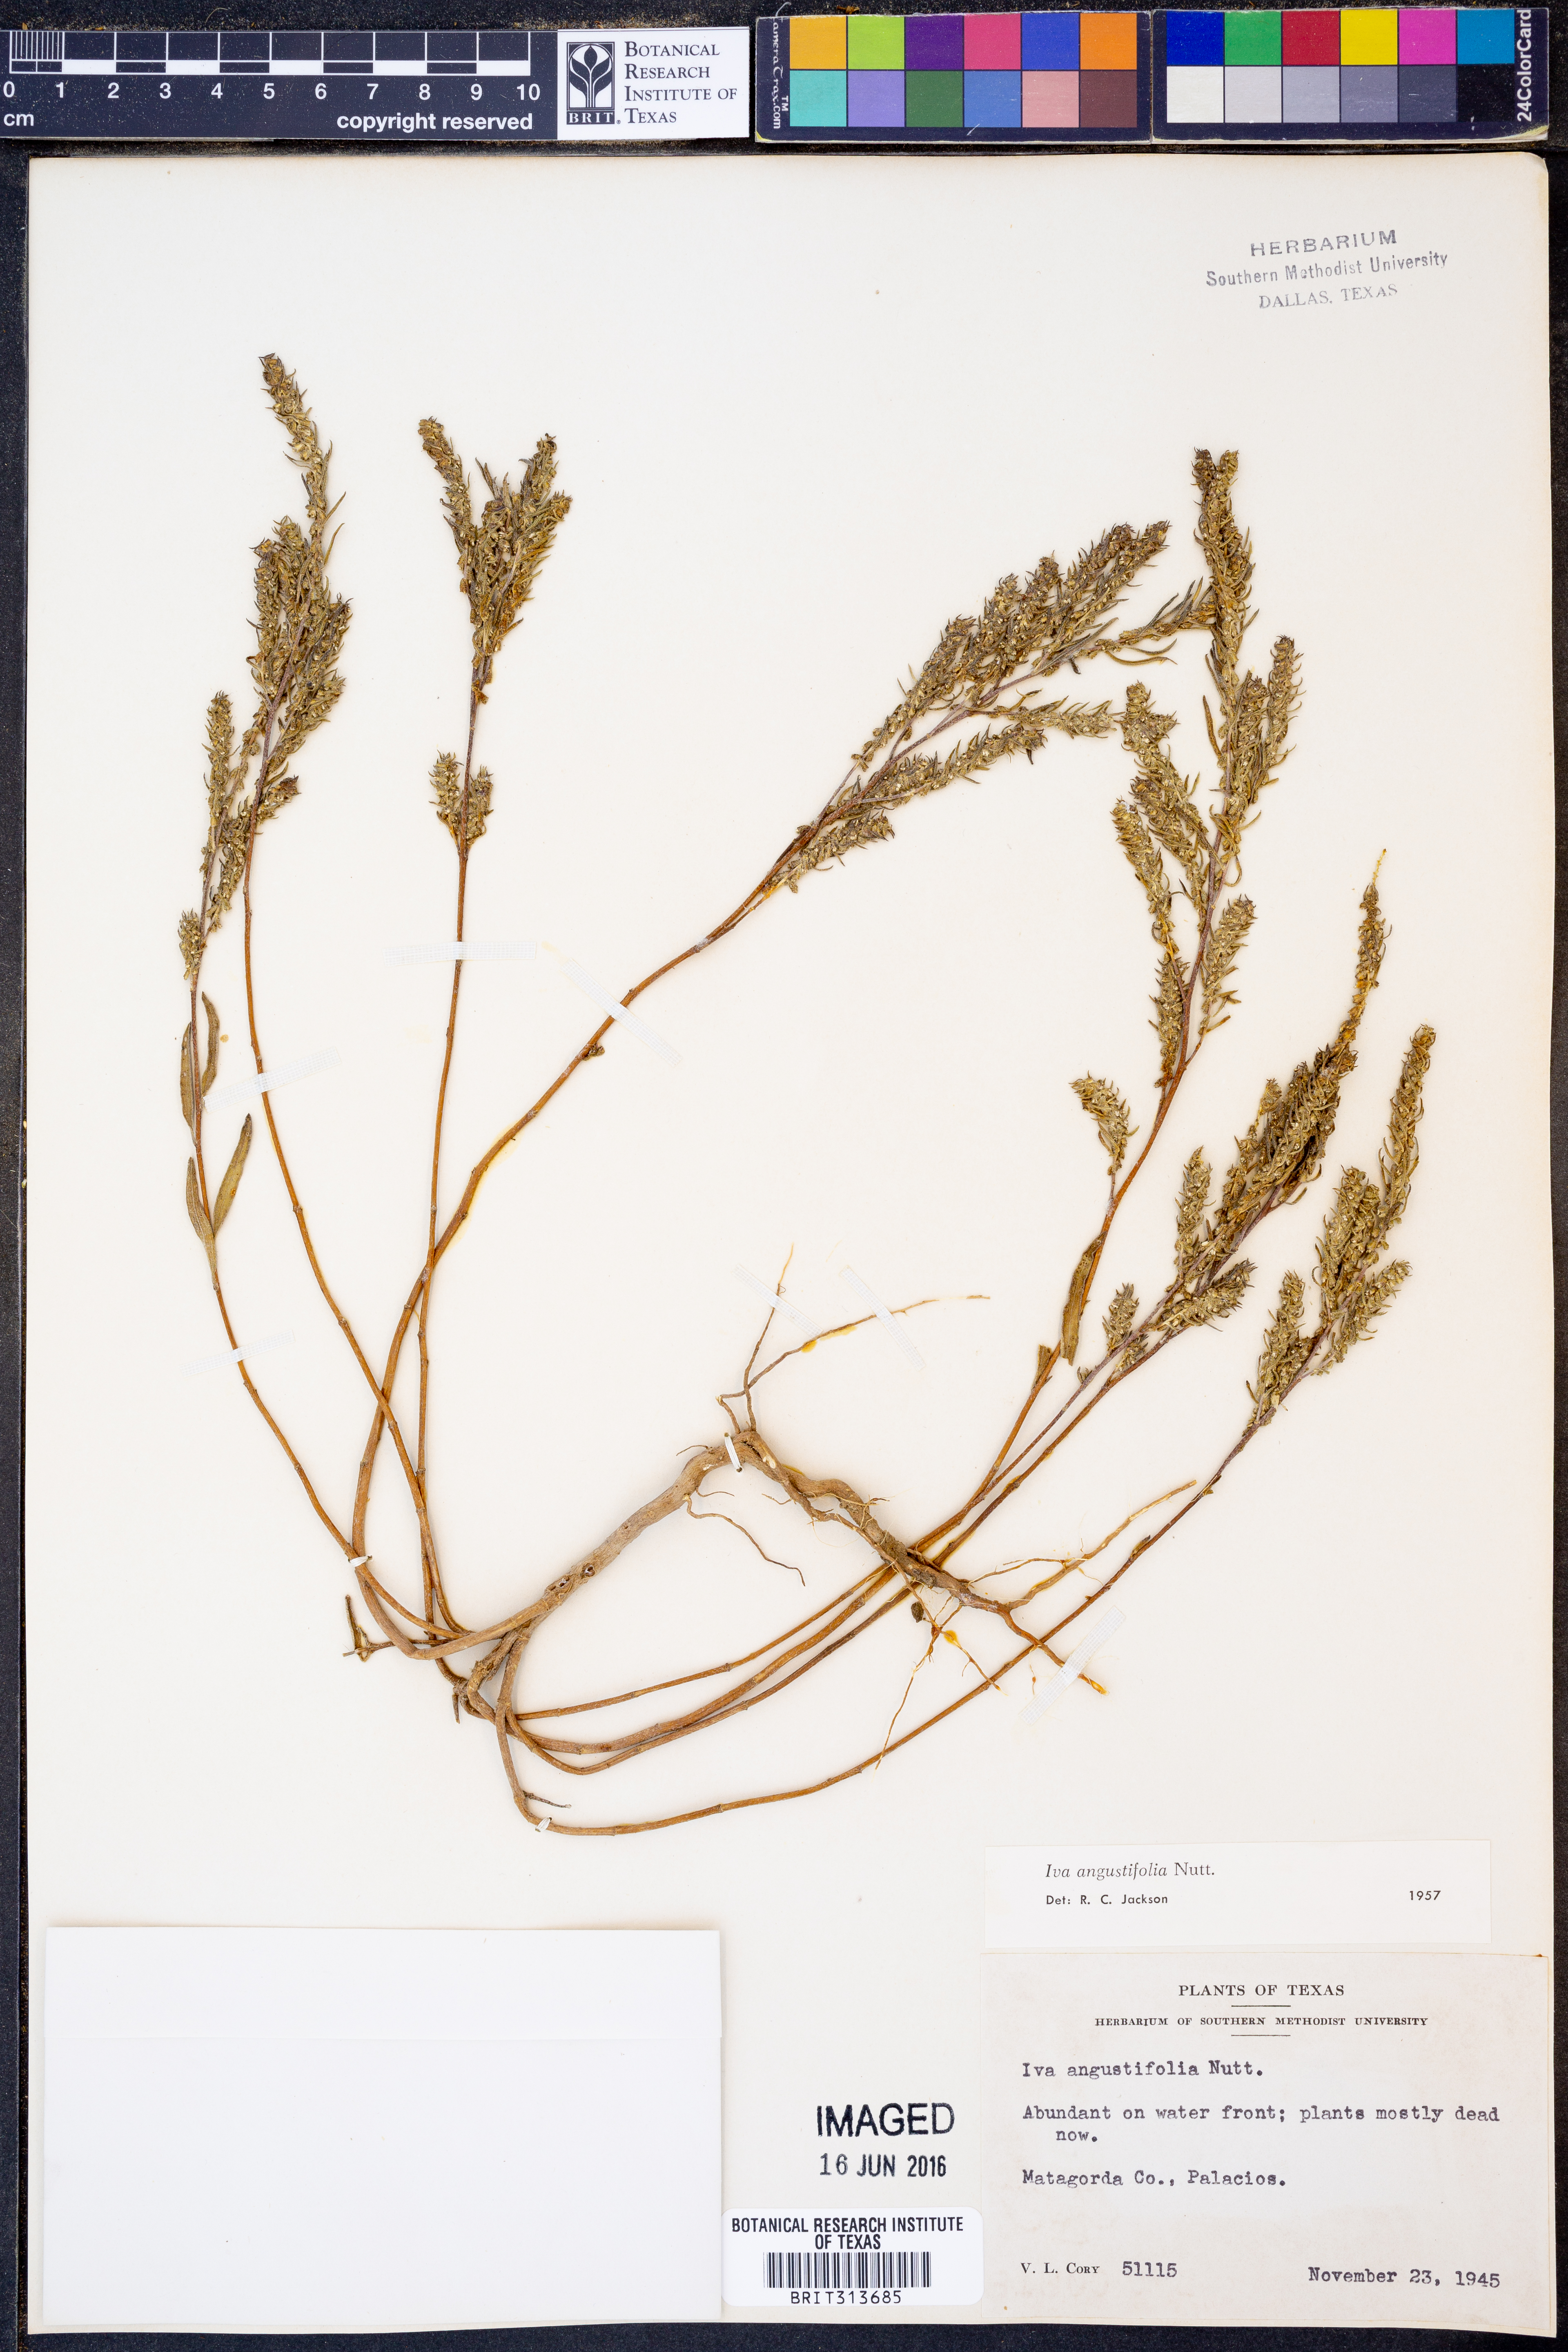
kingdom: Plantae
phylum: Tracheophyta
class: Magnoliopsida
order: Asterales
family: Asteraceae
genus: Iva
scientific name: Iva asperifolia
